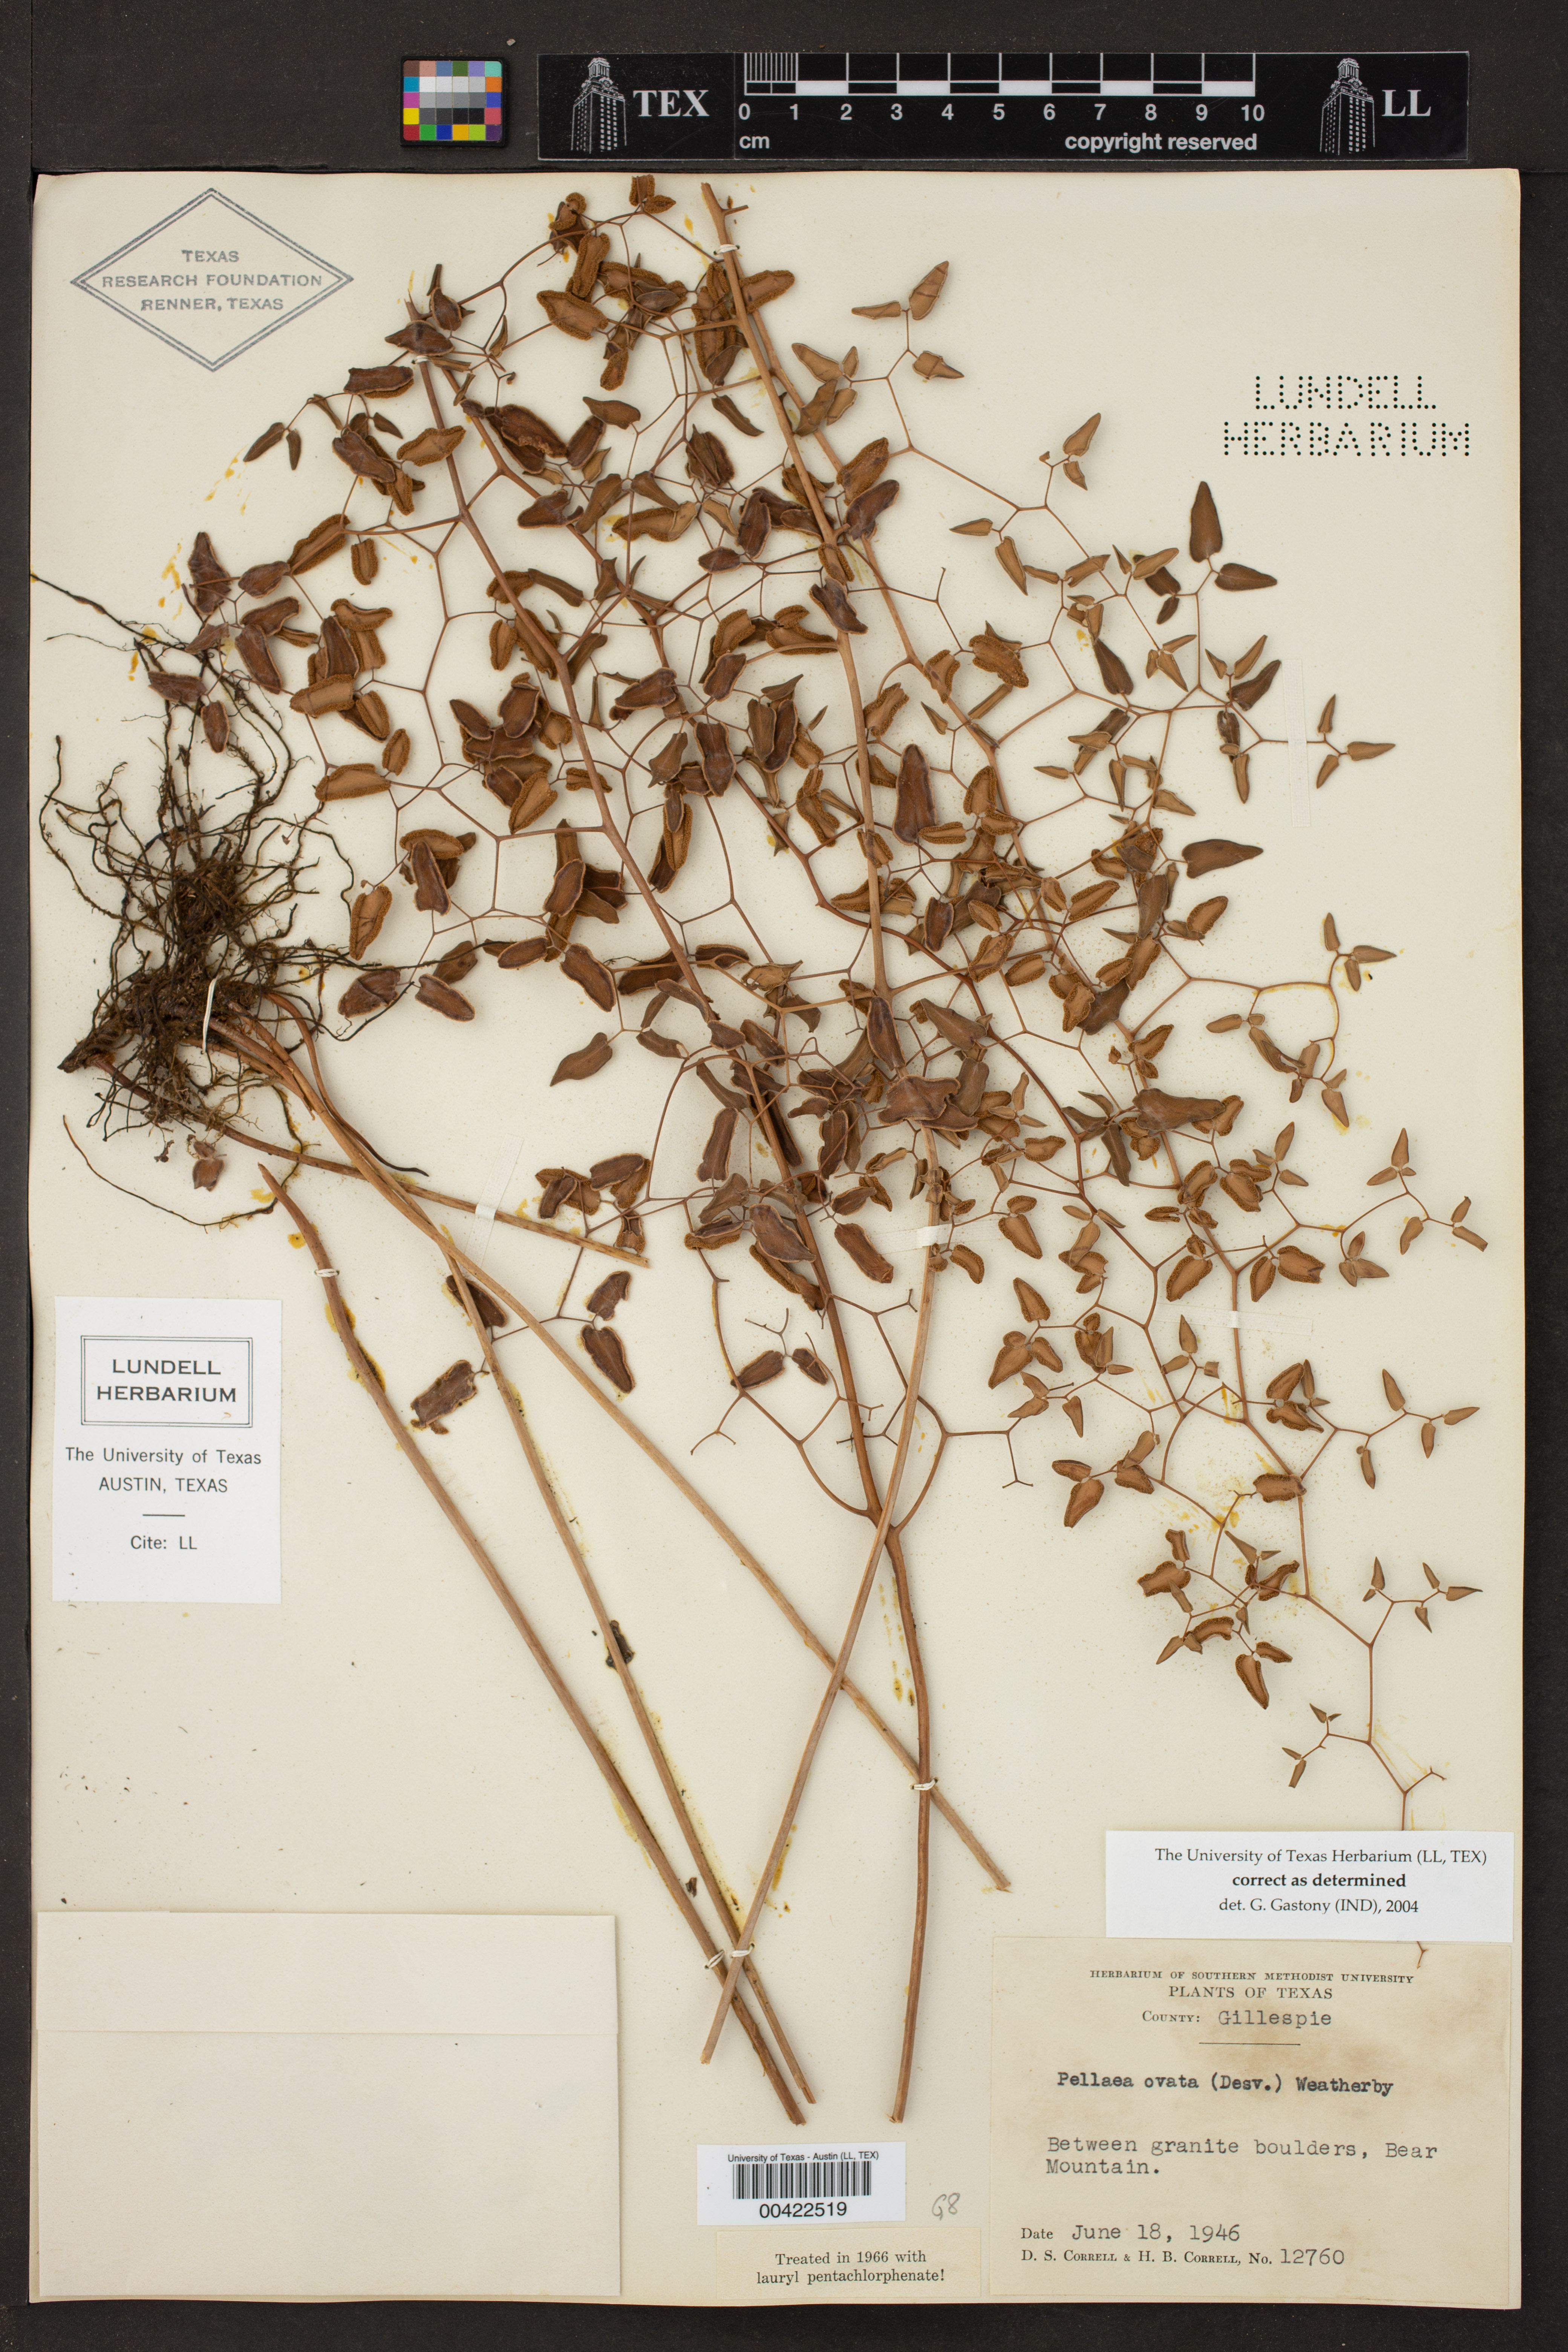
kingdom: Plantae
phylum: Tracheophyta
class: Polypodiopsida
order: Polypodiales
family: Pteridaceae
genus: Pellaea
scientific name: Pellaea ovata
